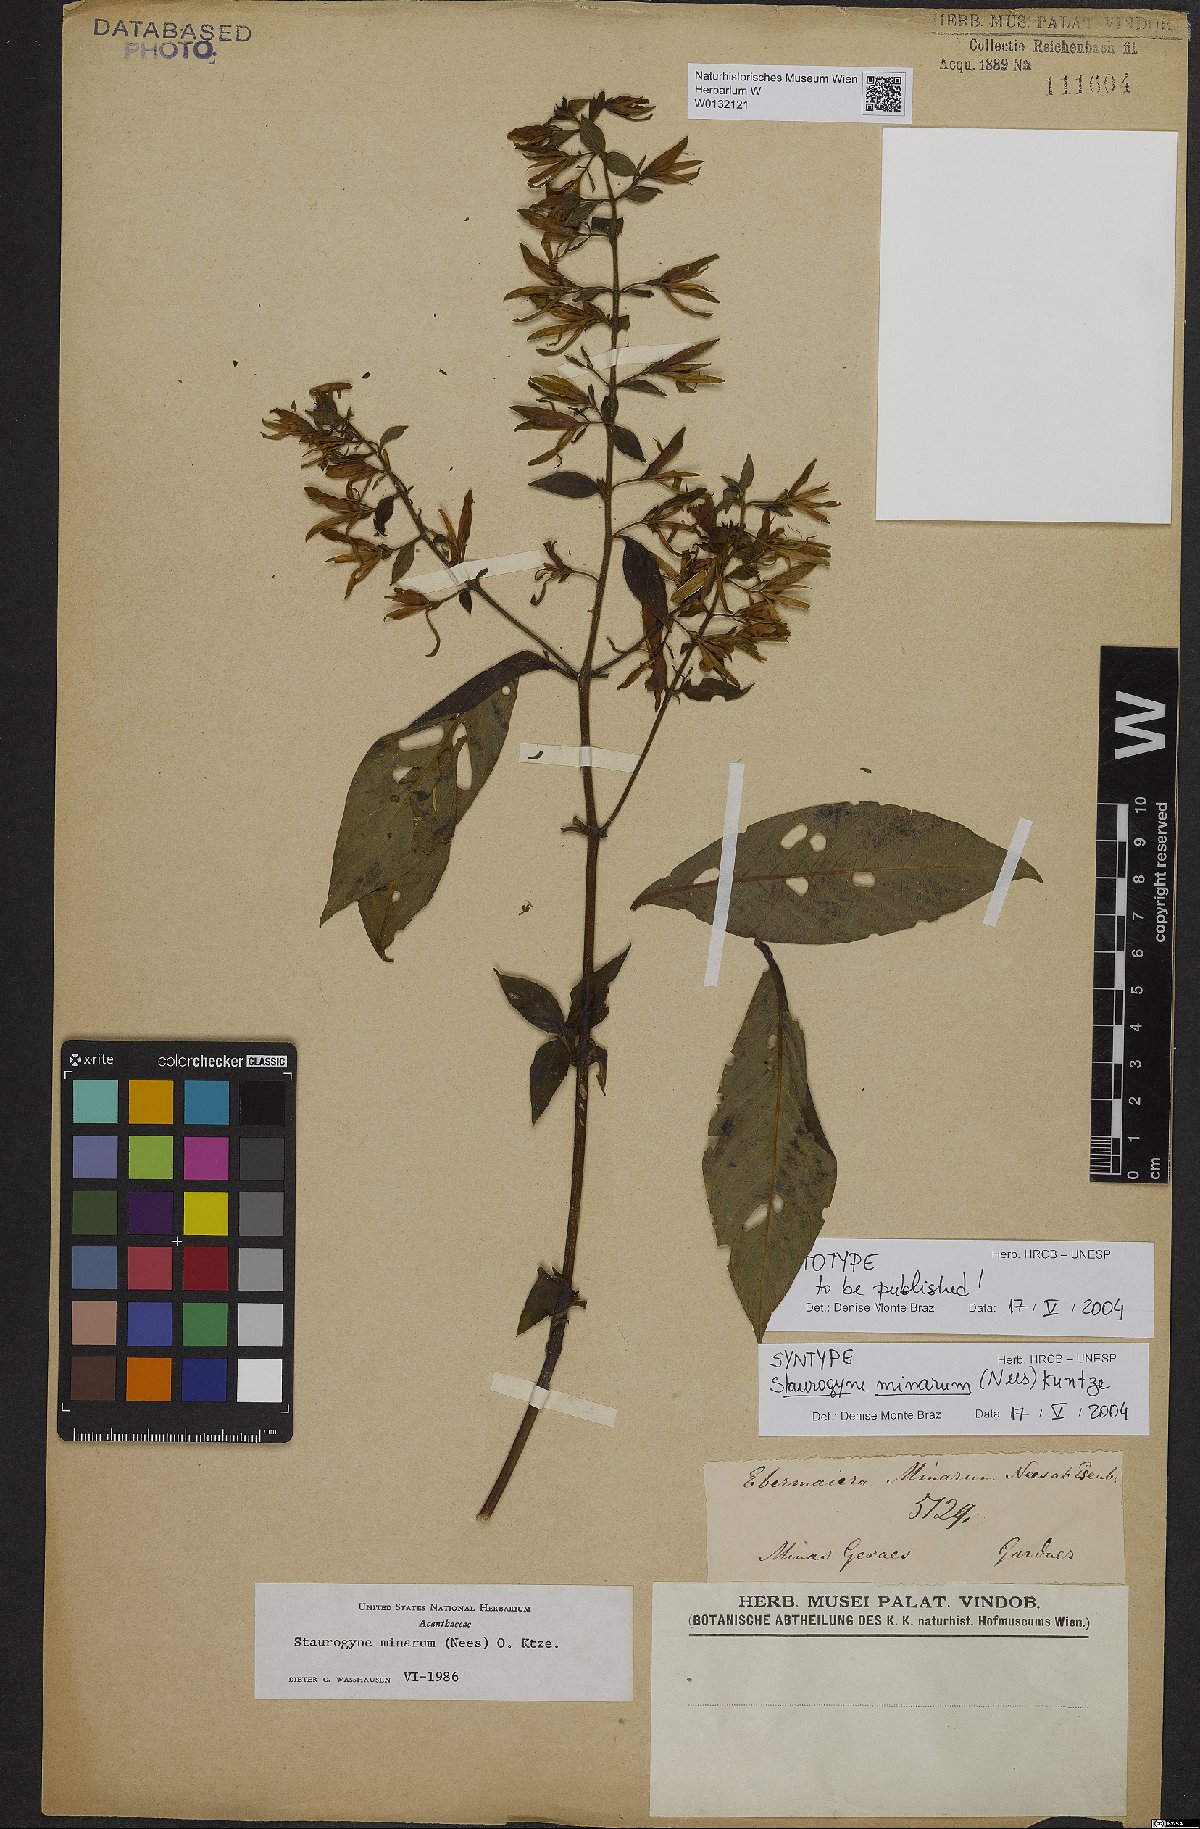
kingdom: Plantae
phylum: Tracheophyta
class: Magnoliopsida
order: Lamiales
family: Acanthaceae
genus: Staurogyne
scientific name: Staurogyne minarum
